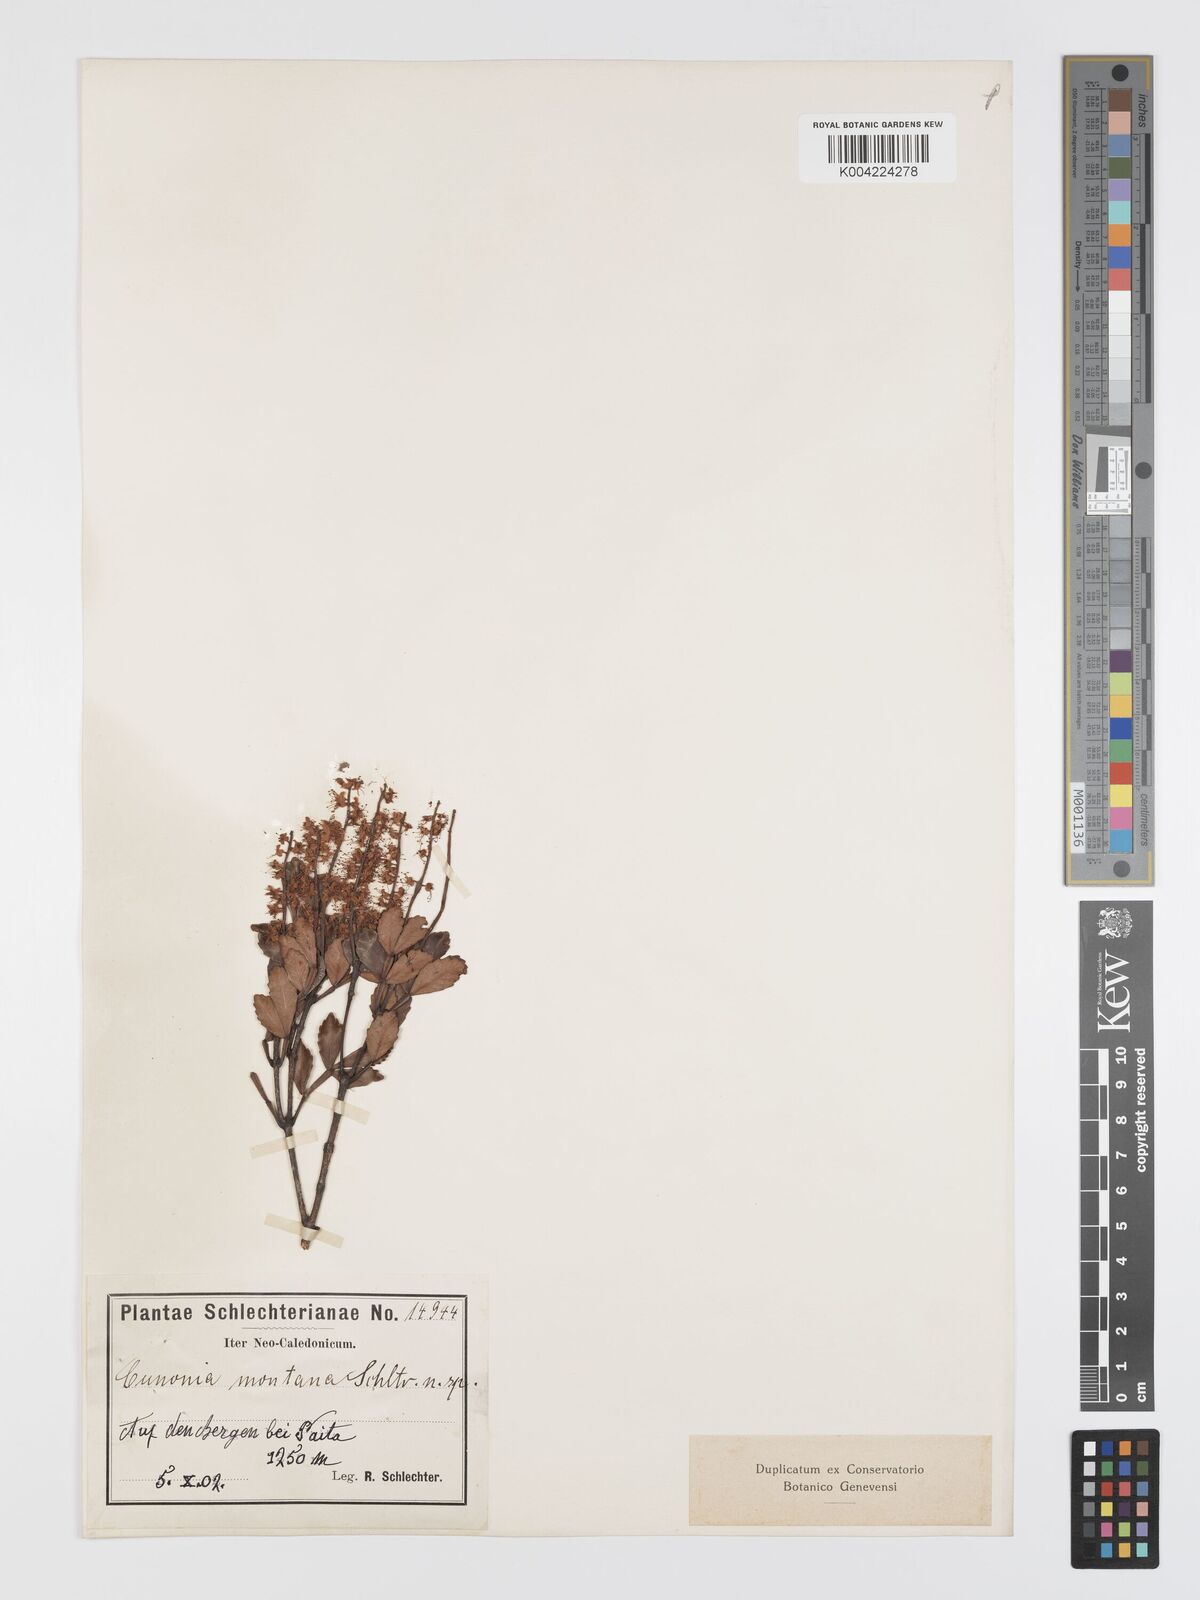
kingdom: Plantae
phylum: Tracheophyta
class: Magnoliopsida
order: Oxalidales
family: Cunoniaceae
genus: Cunonia
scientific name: Cunonia montana
